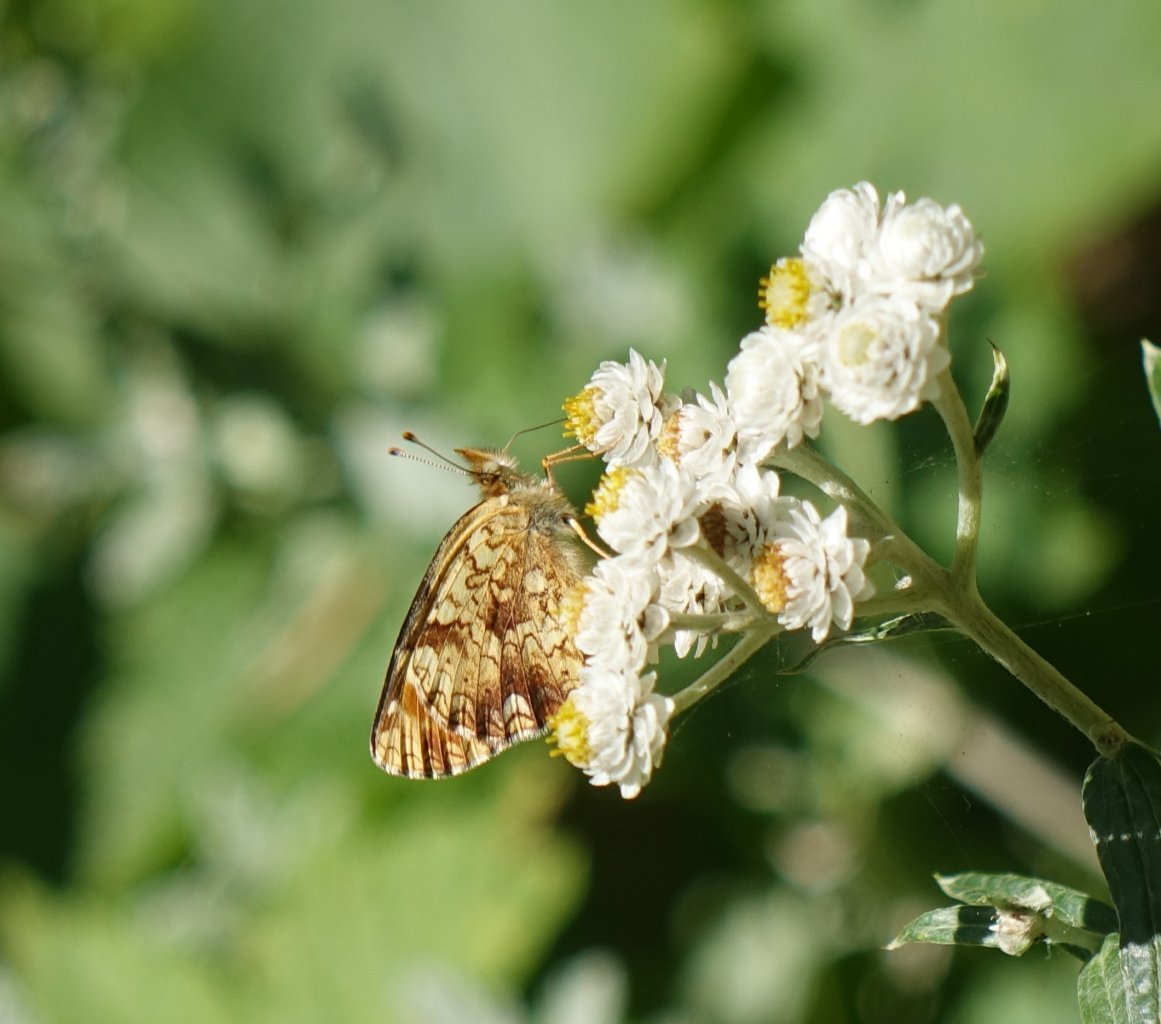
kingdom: Animalia
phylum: Arthropoda
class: Insecta
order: Lepidoptera
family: Nymphalidae
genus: Phyciodes
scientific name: Phyciodes tharos
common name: Field Crescent
